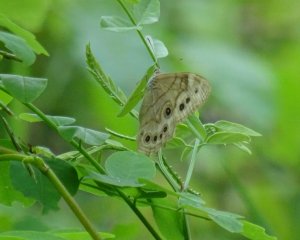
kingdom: Animalia
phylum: Arthropoda
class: Insecta
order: Lepidoptera
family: Nymphalidae
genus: Lethe
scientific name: Lethe anthedon
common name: Northern Pearly-Eye
